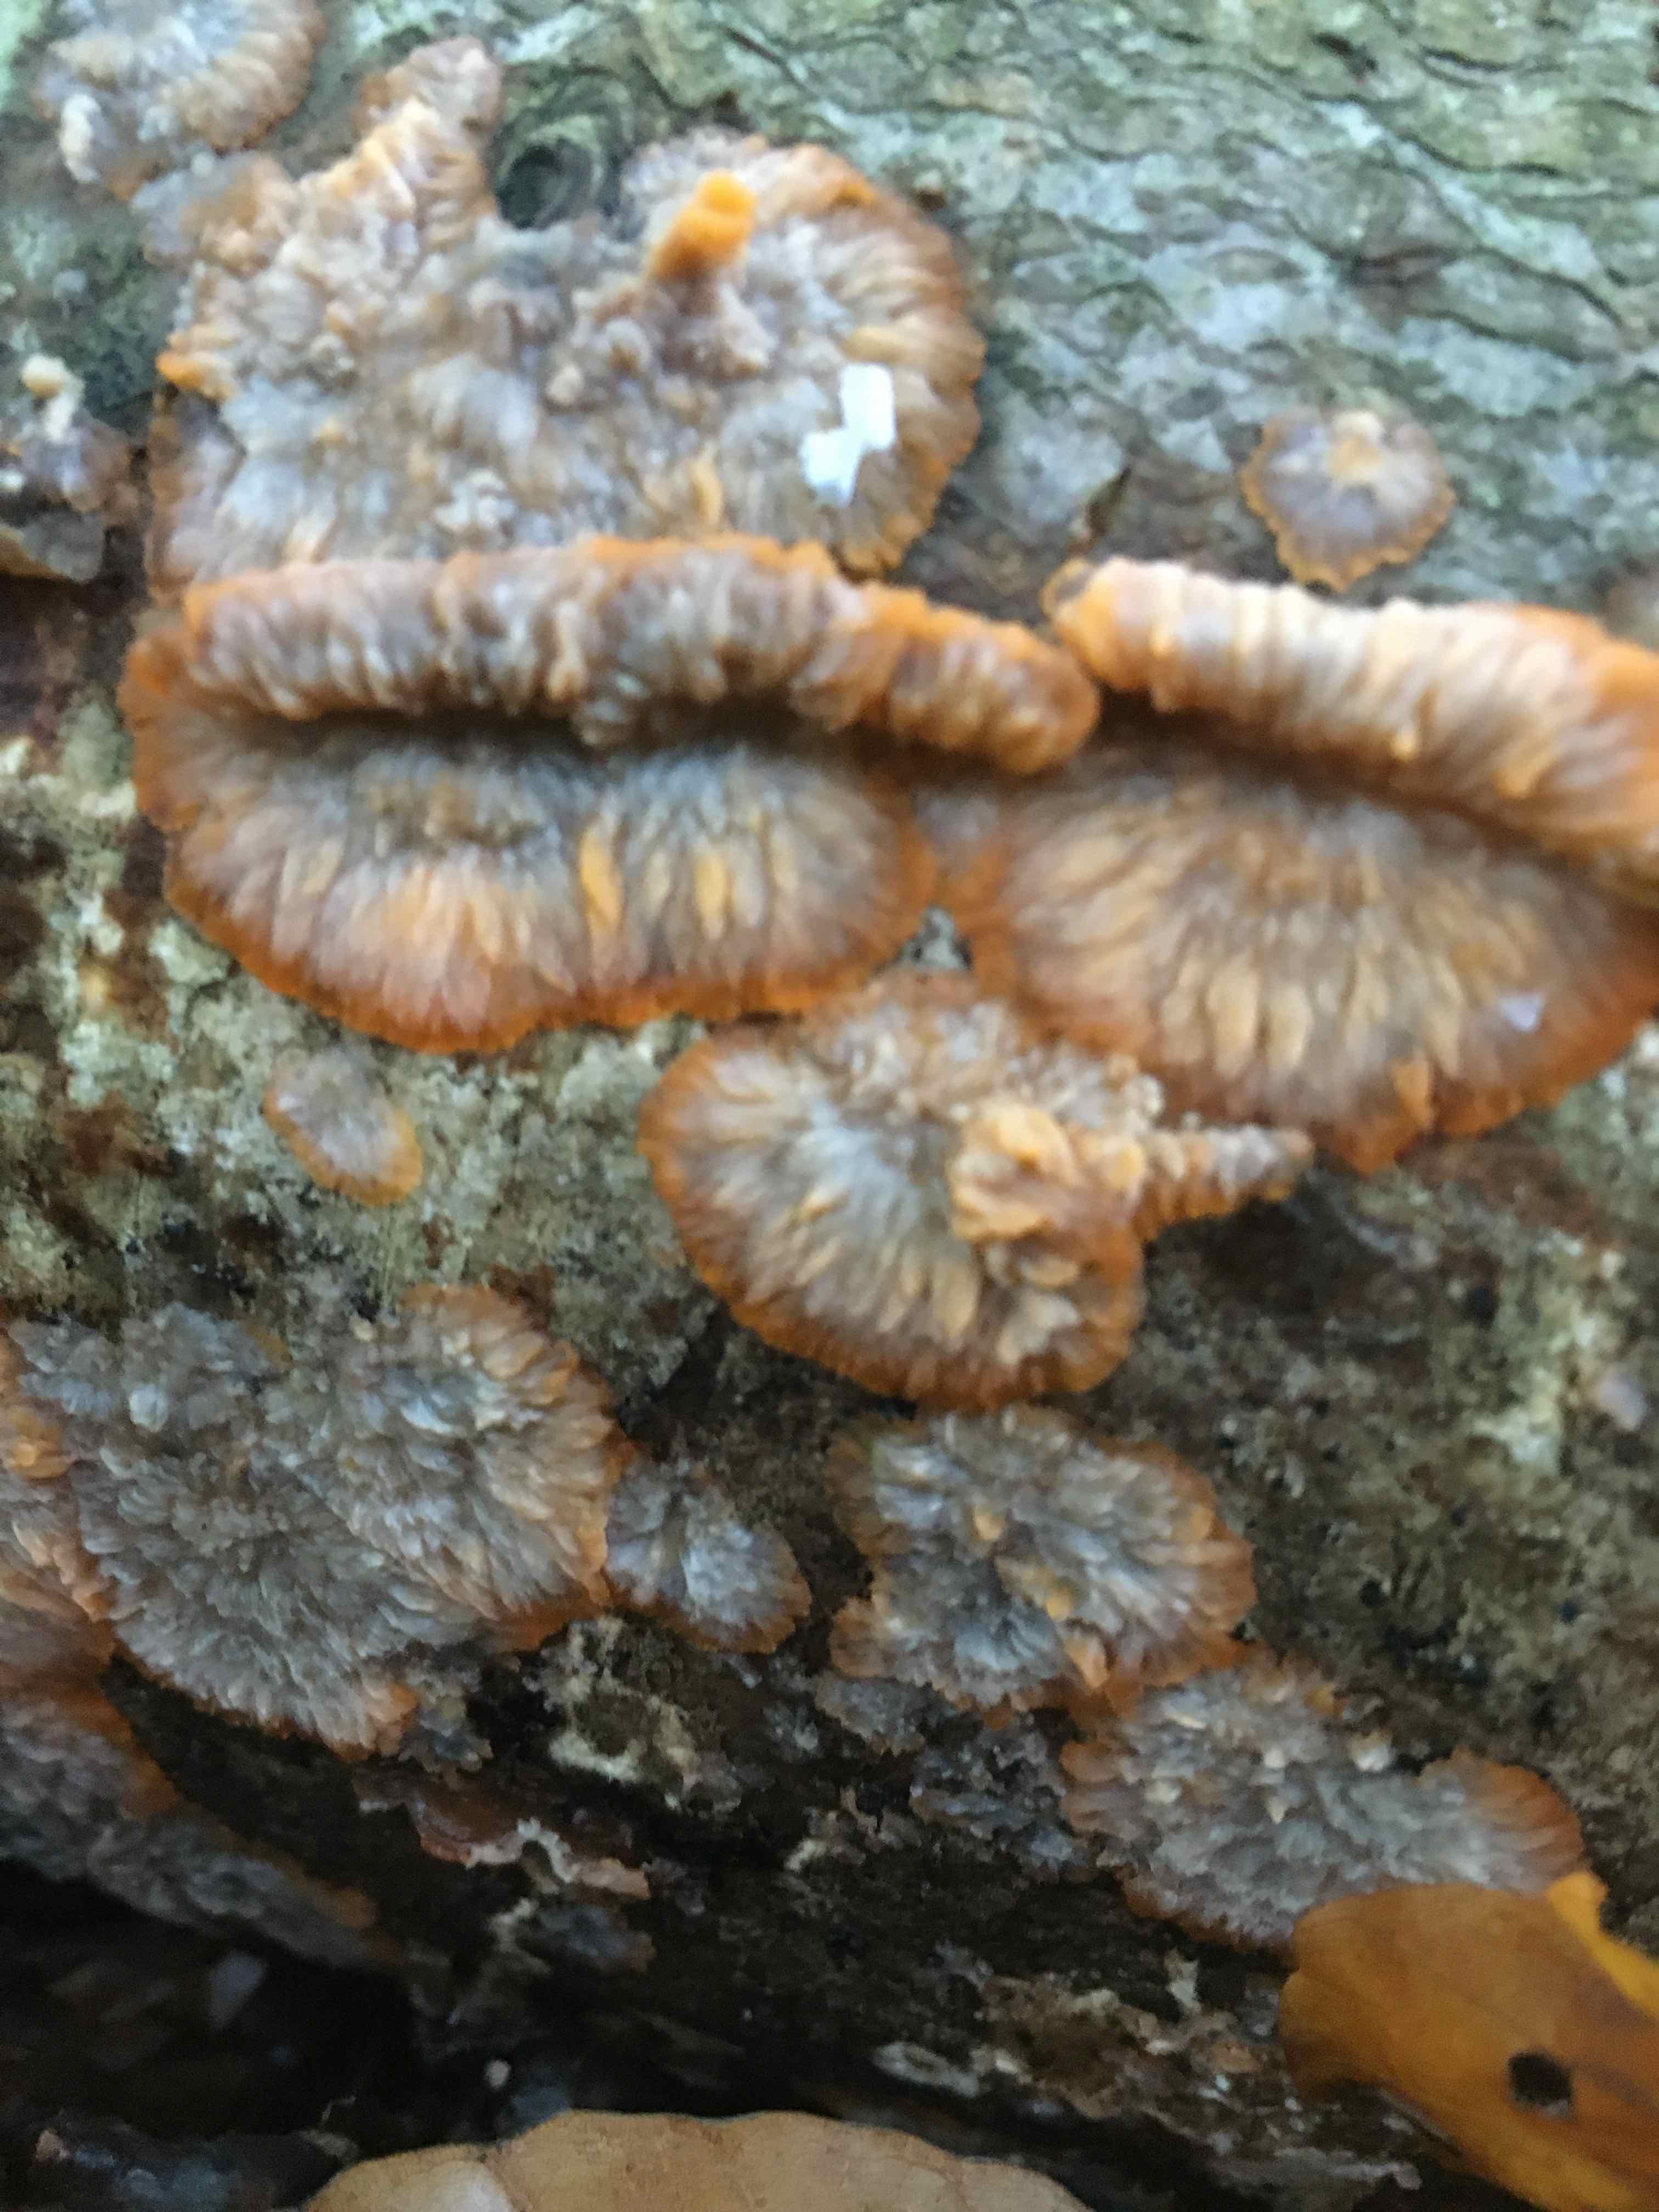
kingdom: Fungi
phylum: Basidiomycota
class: Agaricomycetes
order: Polyporales
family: Meruliaceae
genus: Phlebia
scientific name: Phlebia radiata
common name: stråle-åresvamp
